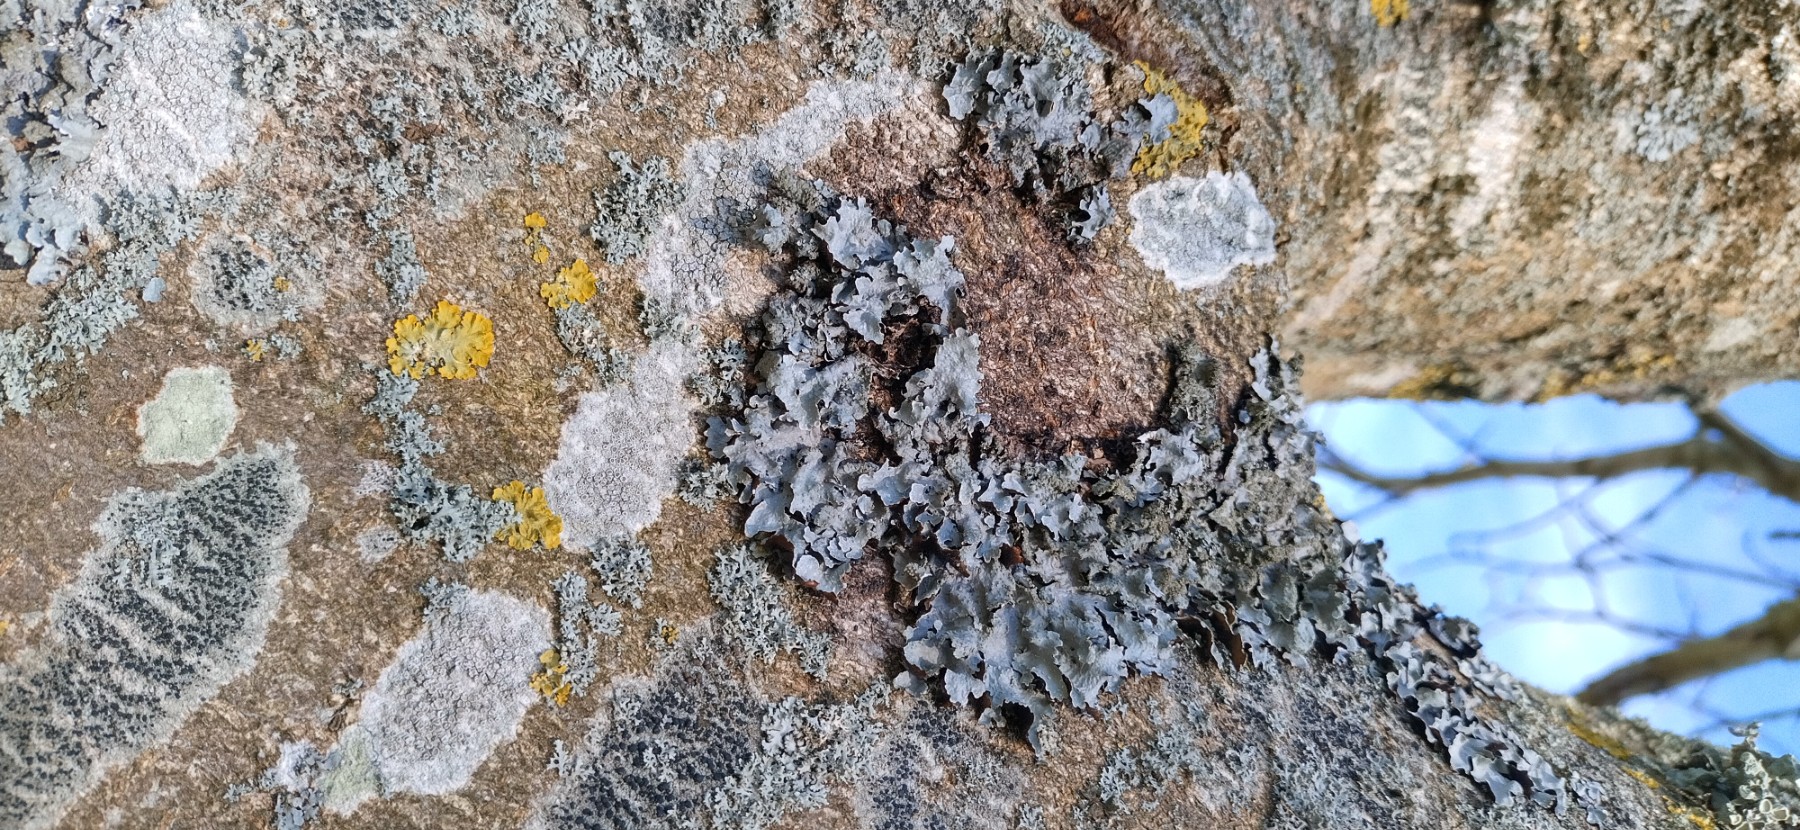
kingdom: Fungi
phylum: Ascomycota
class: Lecanoromycetes
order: Lecanorales
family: Parmeliaceae
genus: Parmelia
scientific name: Parmelia sulcata
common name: rynket skållav
